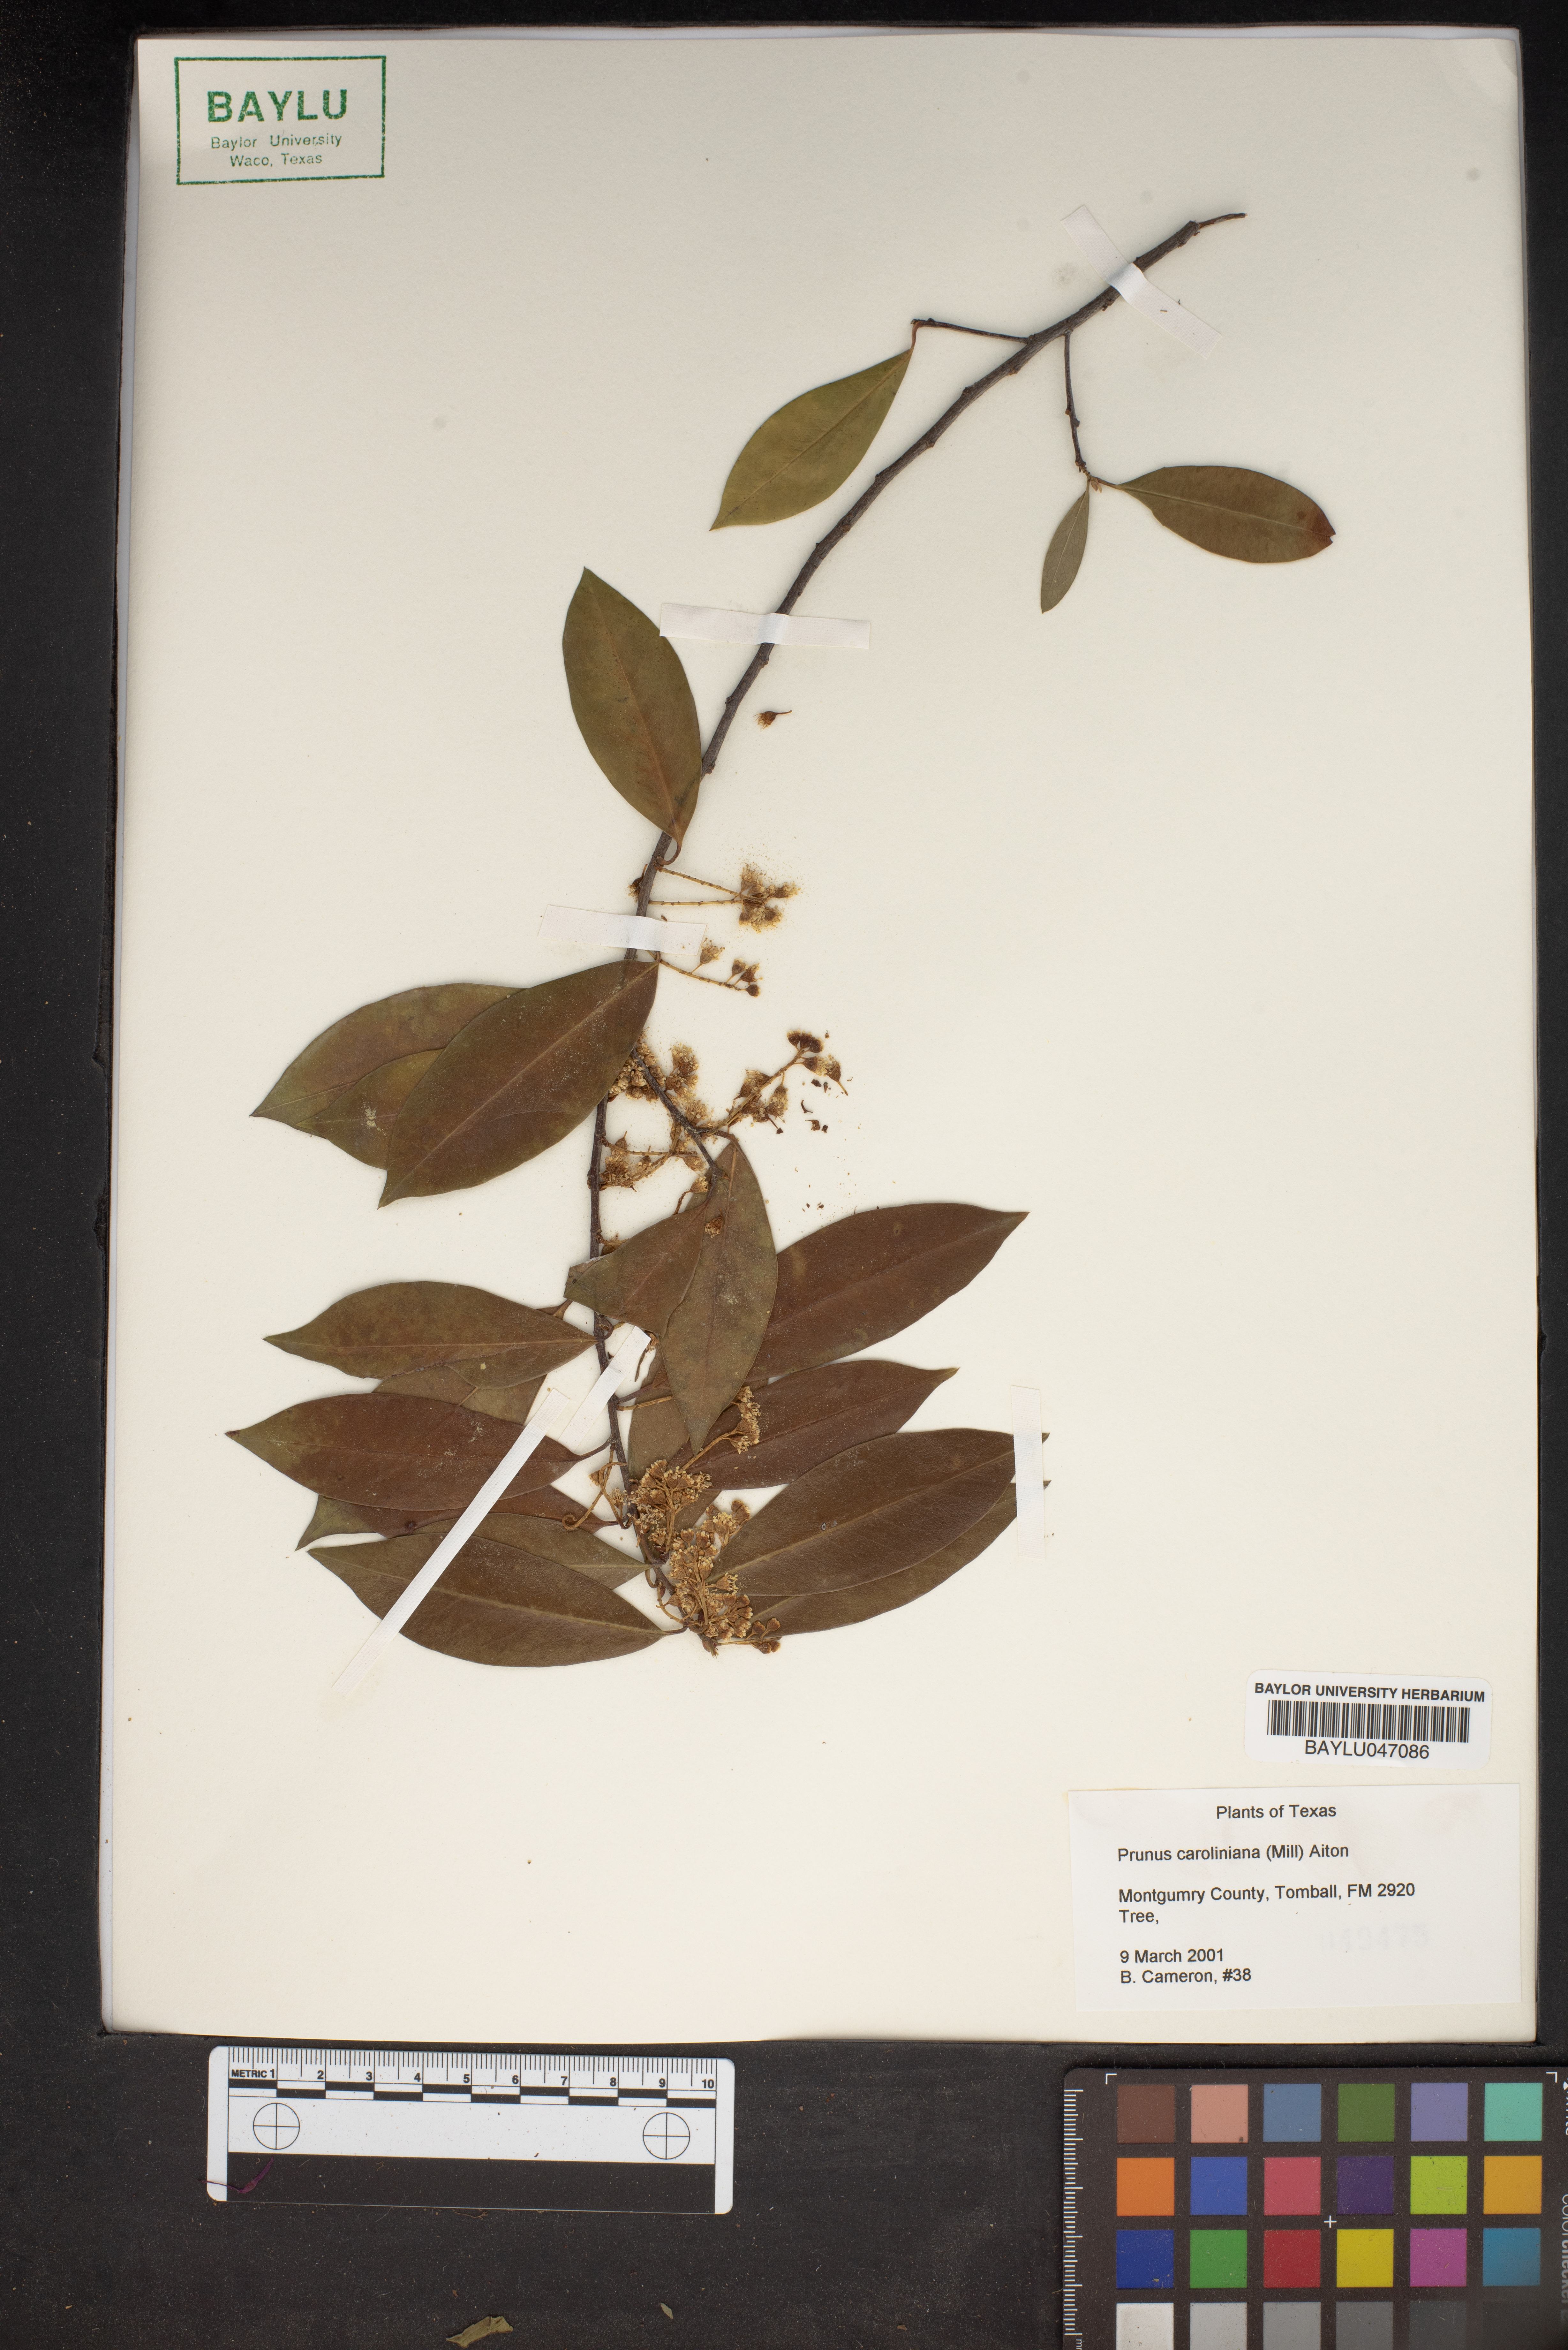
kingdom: Plantae
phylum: Tracheophyta
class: Magnoliopsida
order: Rosales
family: Rosaceae
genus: Prunus
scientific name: Prunus caroliniana
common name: Carolina laurel cherry
